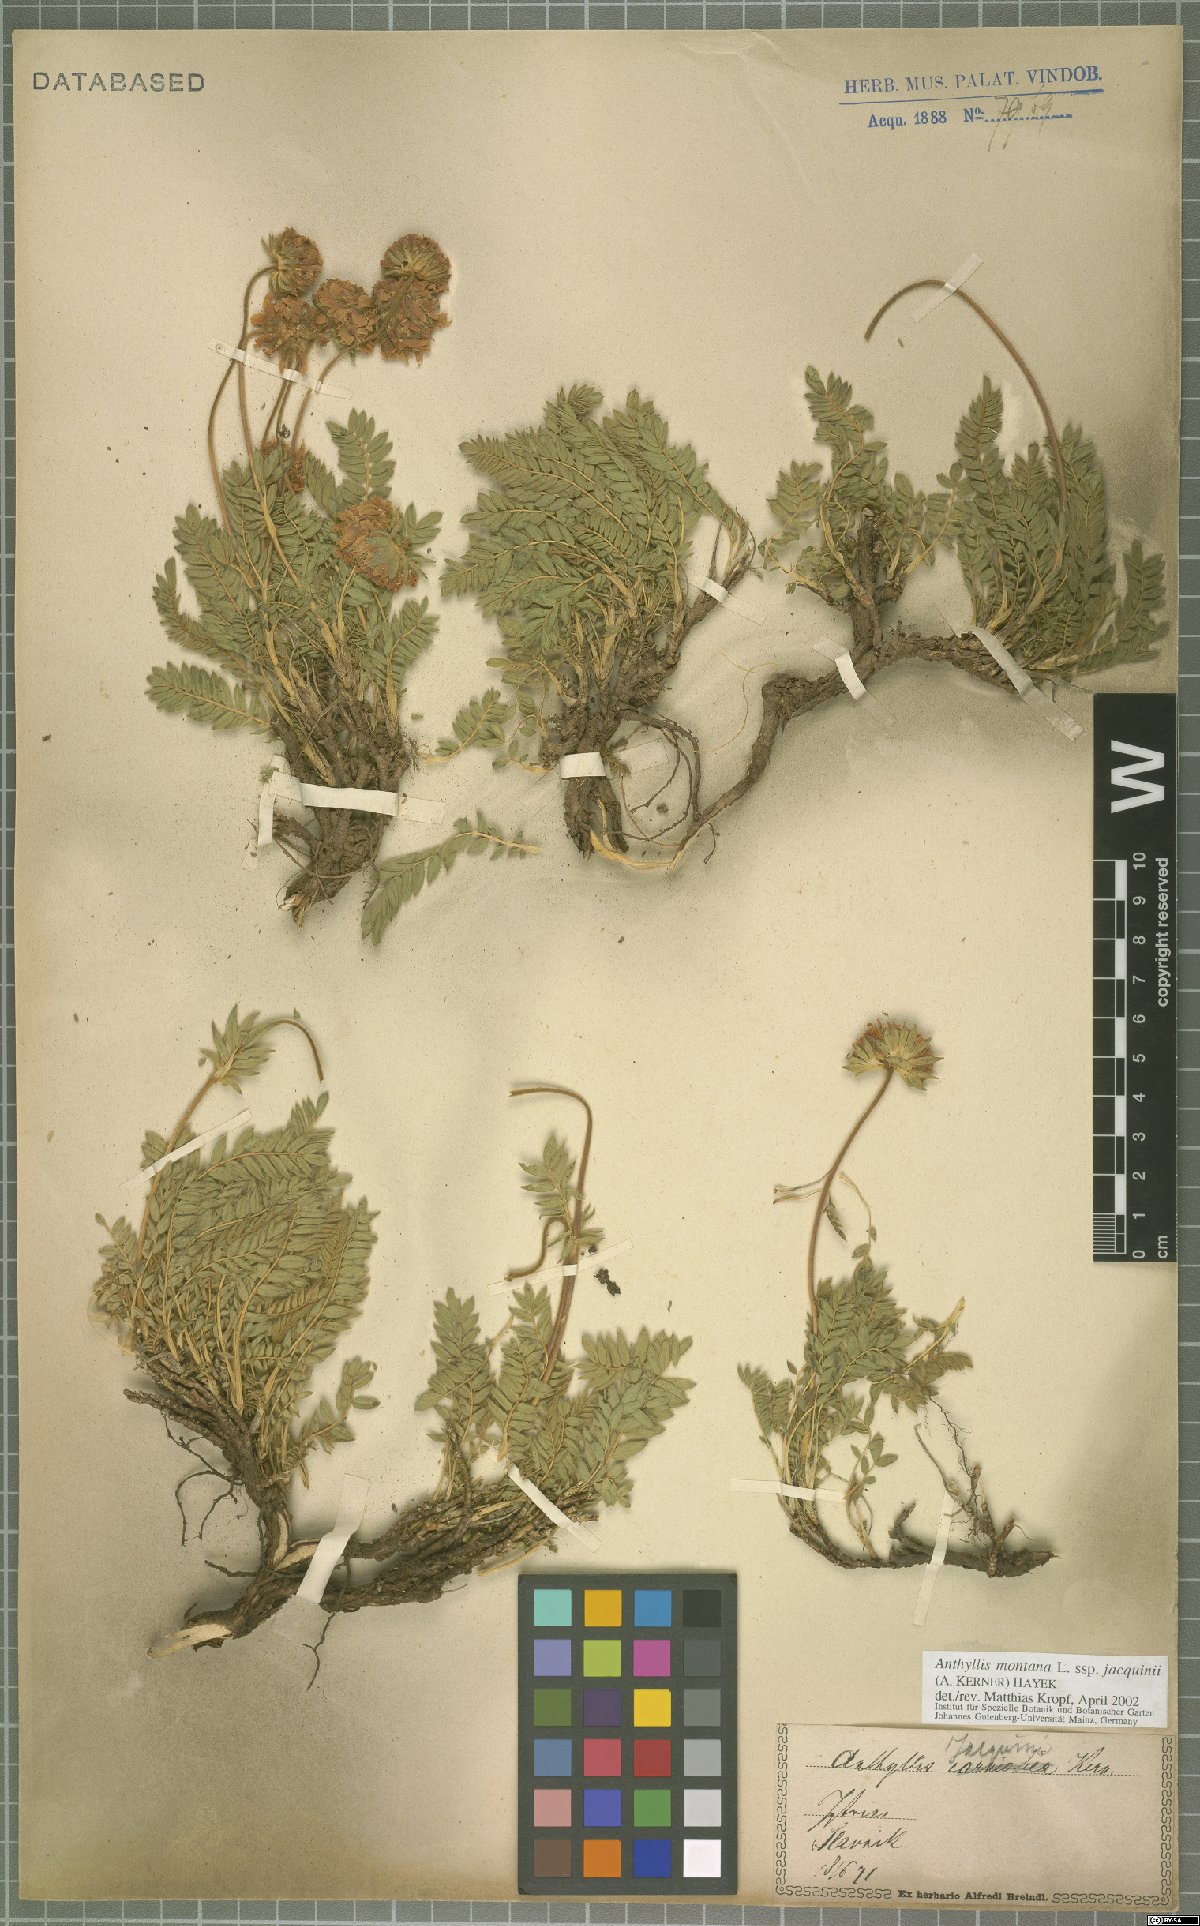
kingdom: Plantae
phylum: Tracheophyta
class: Magnoliopsida
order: Fabales
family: Fabaceae
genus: Anthyllis
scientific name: Anthyllis montana
